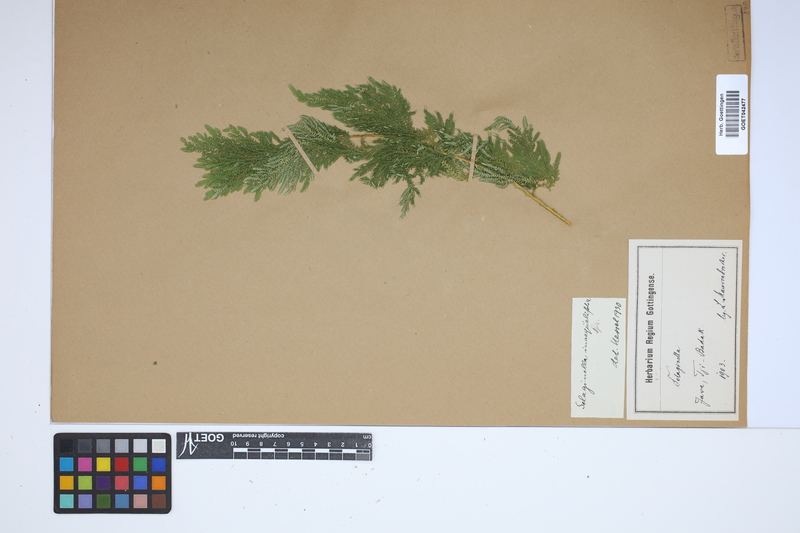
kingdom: Plantae
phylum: Tracheophyta
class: Lycopodiopsida
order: Selaginellales
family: Selaginellaceae
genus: Selaginella
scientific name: Selaginella inaequalifolia
